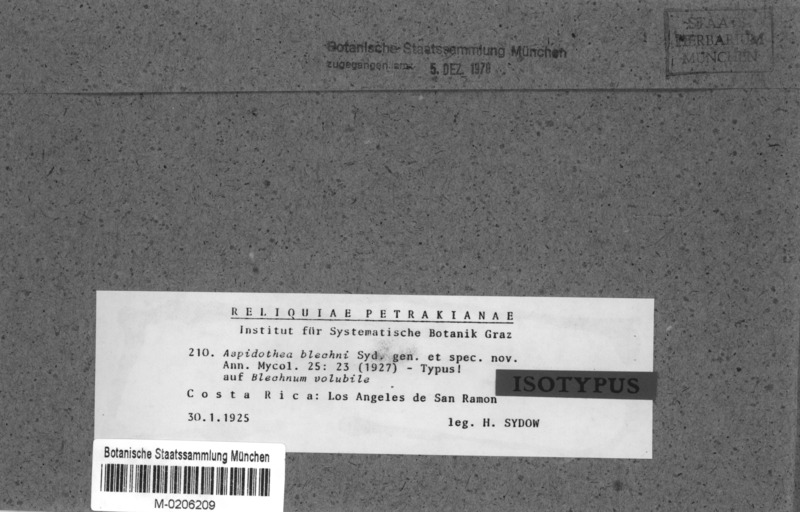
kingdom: Fungi
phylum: Ascomycota
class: Dothideomycetes
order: Asterinales
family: Parmulariaceae
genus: Inocyclus
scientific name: Inocyclus blechni
